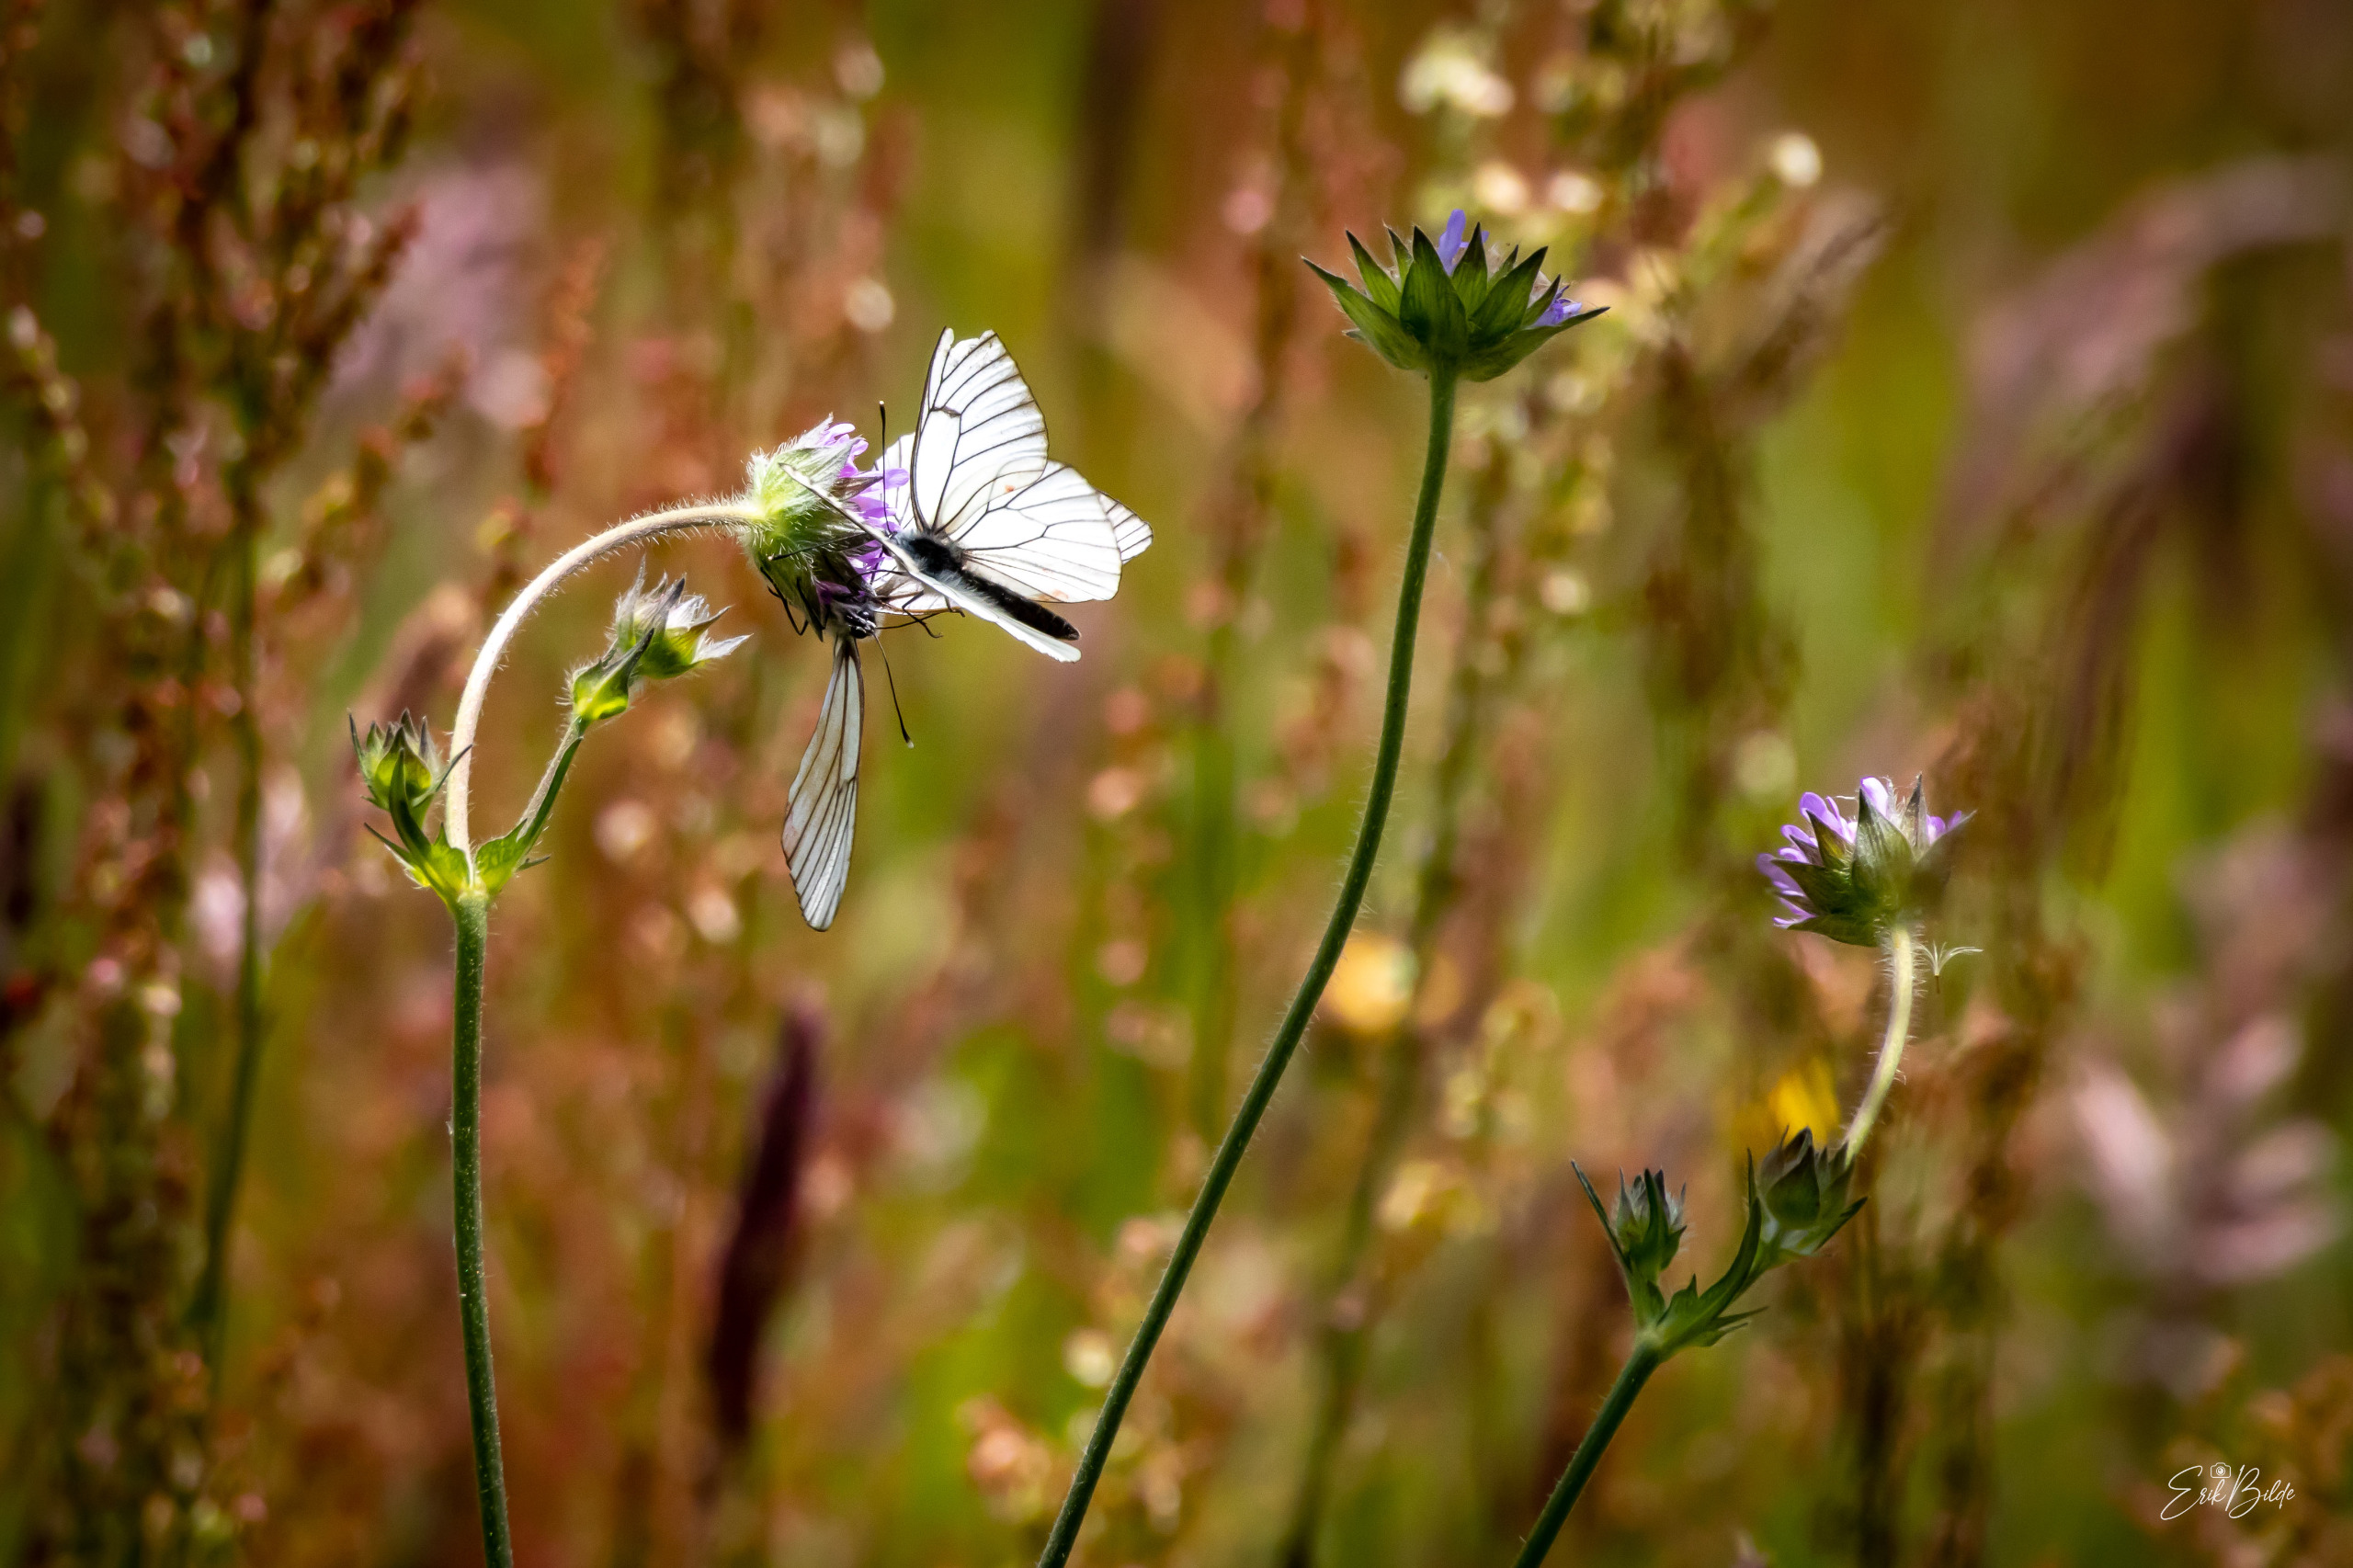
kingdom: Animalia
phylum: Arthropoda
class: Insecta
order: Lepidoptera
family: Pieridae
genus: Aporia
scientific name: Aporia crataegi
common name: Sortåret hvidvinge
